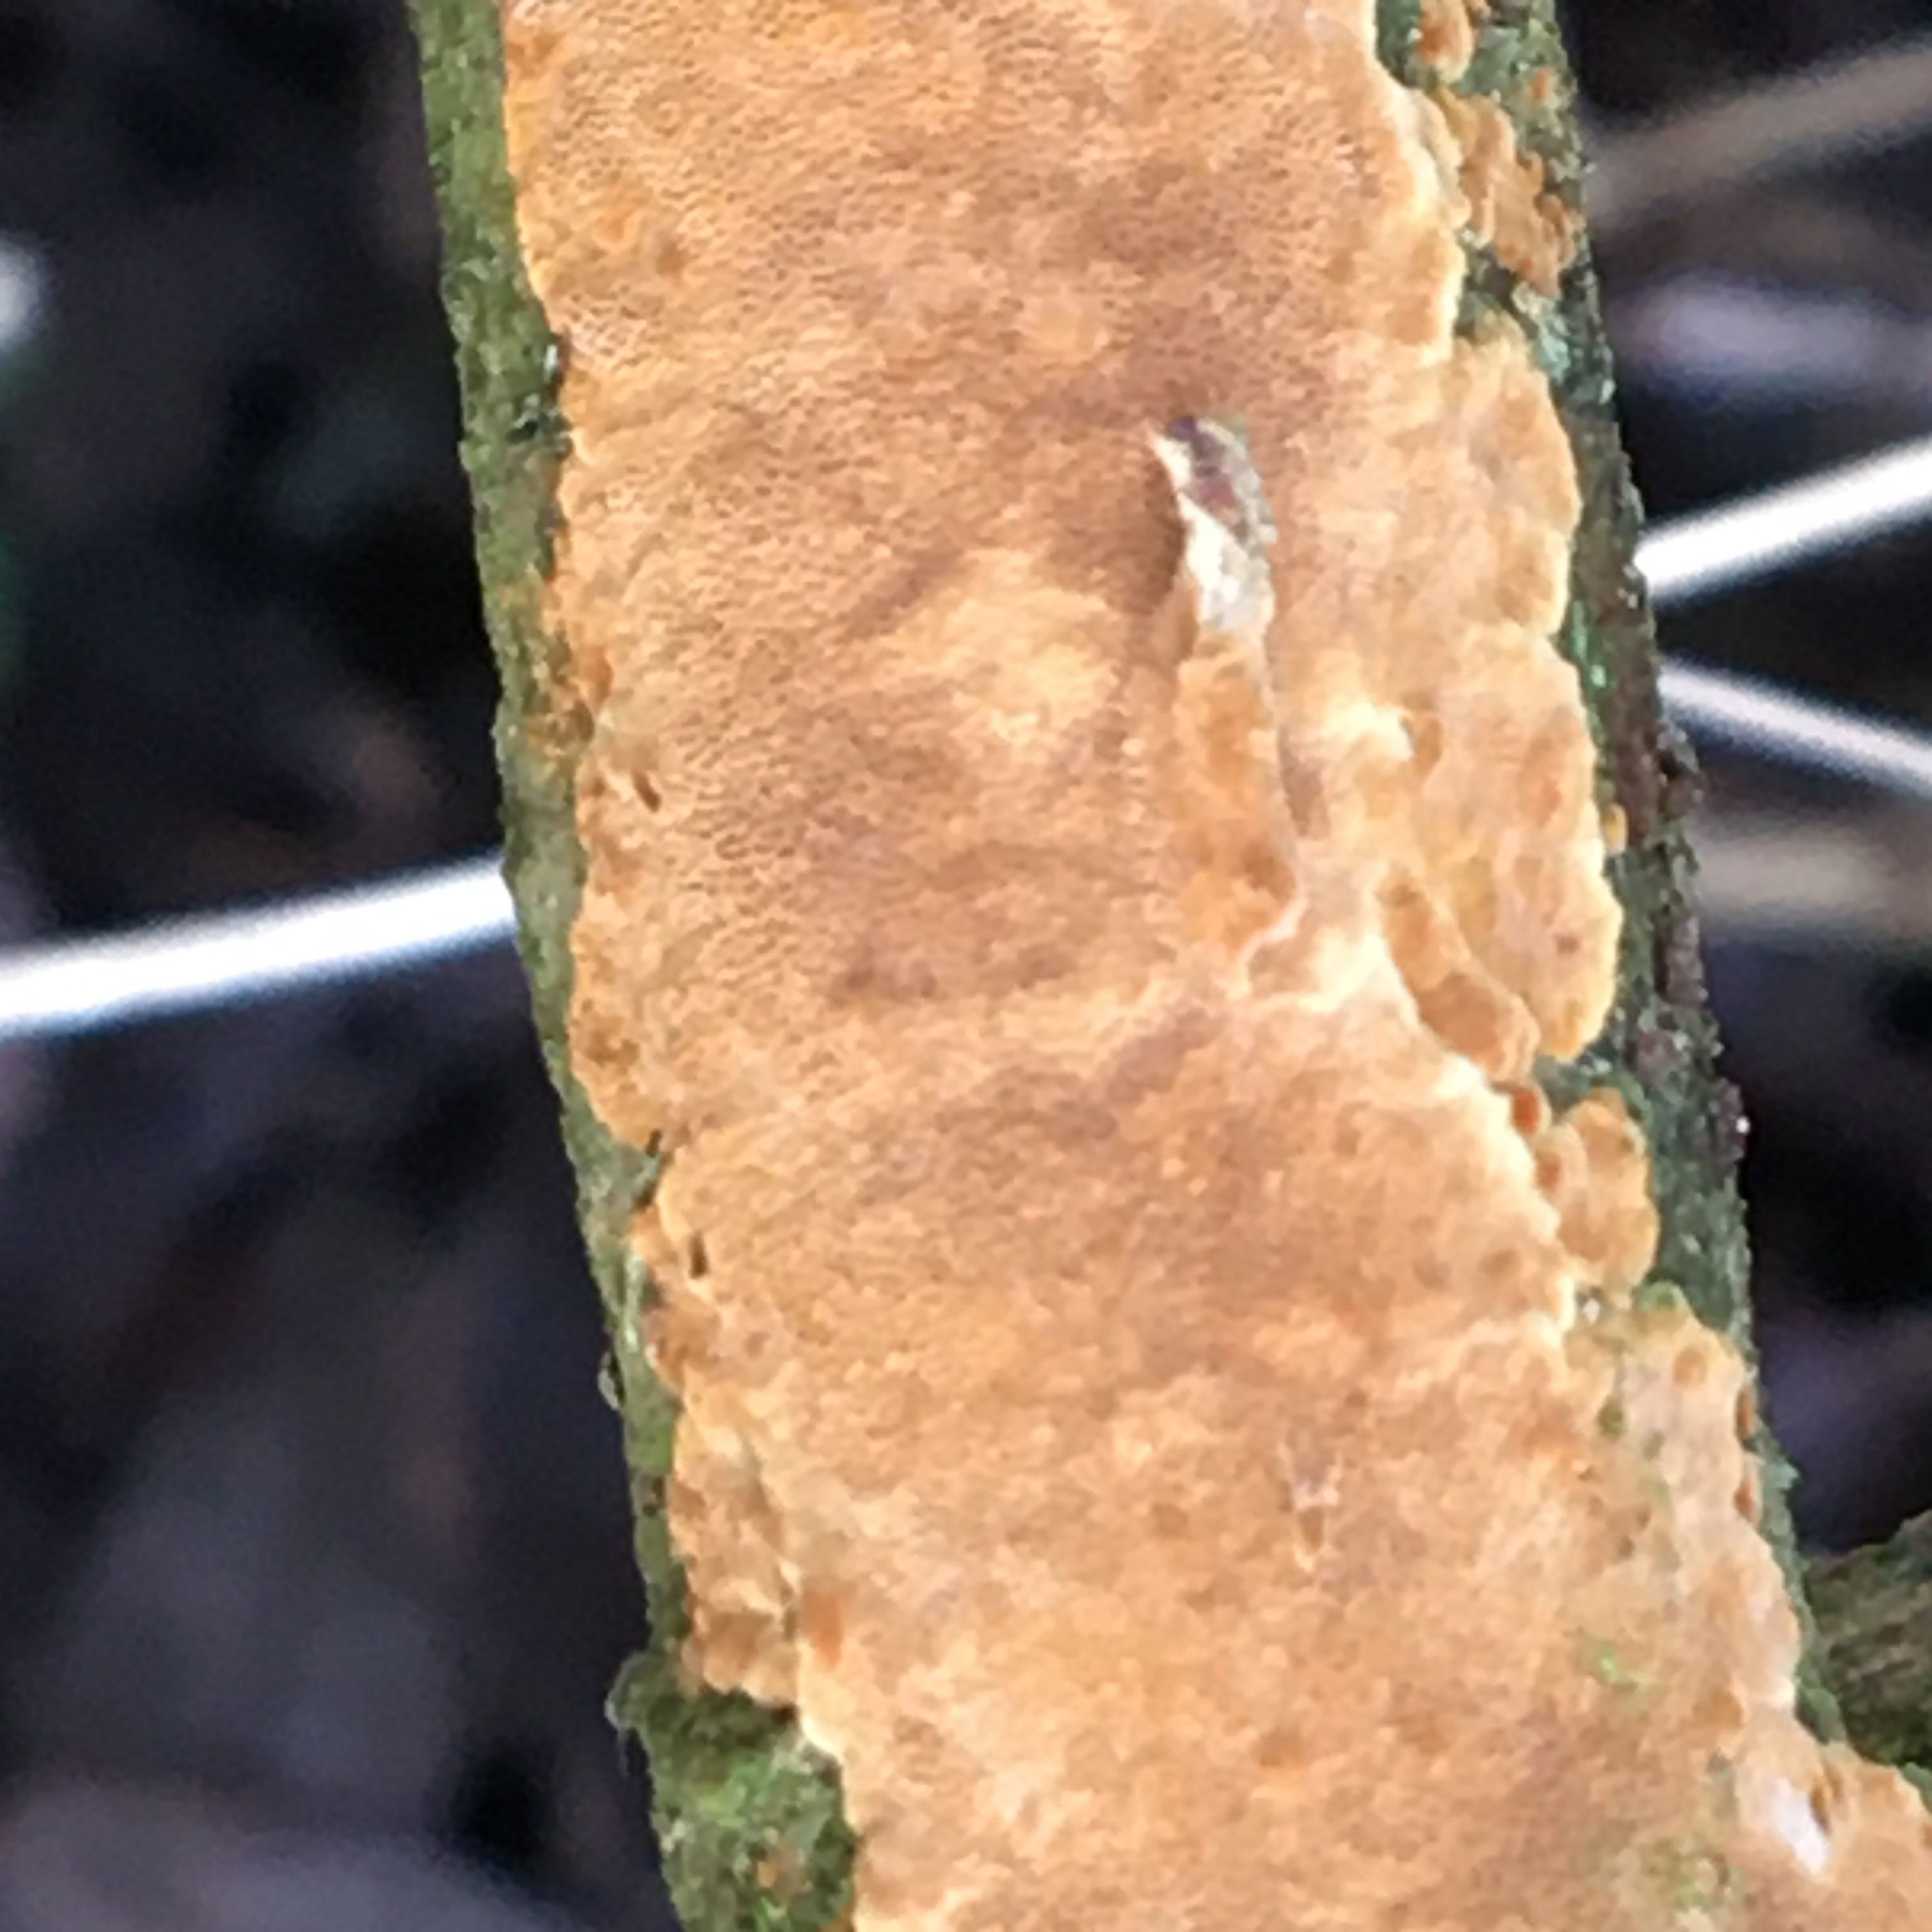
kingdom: Fungi
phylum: Basidiomycota
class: Agaricomycetes
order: Hymenochaetales
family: Hymenochaetaceae
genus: Fuscoporia
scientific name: Fuscoporia ferrea
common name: skorpe-ildporesvamp
